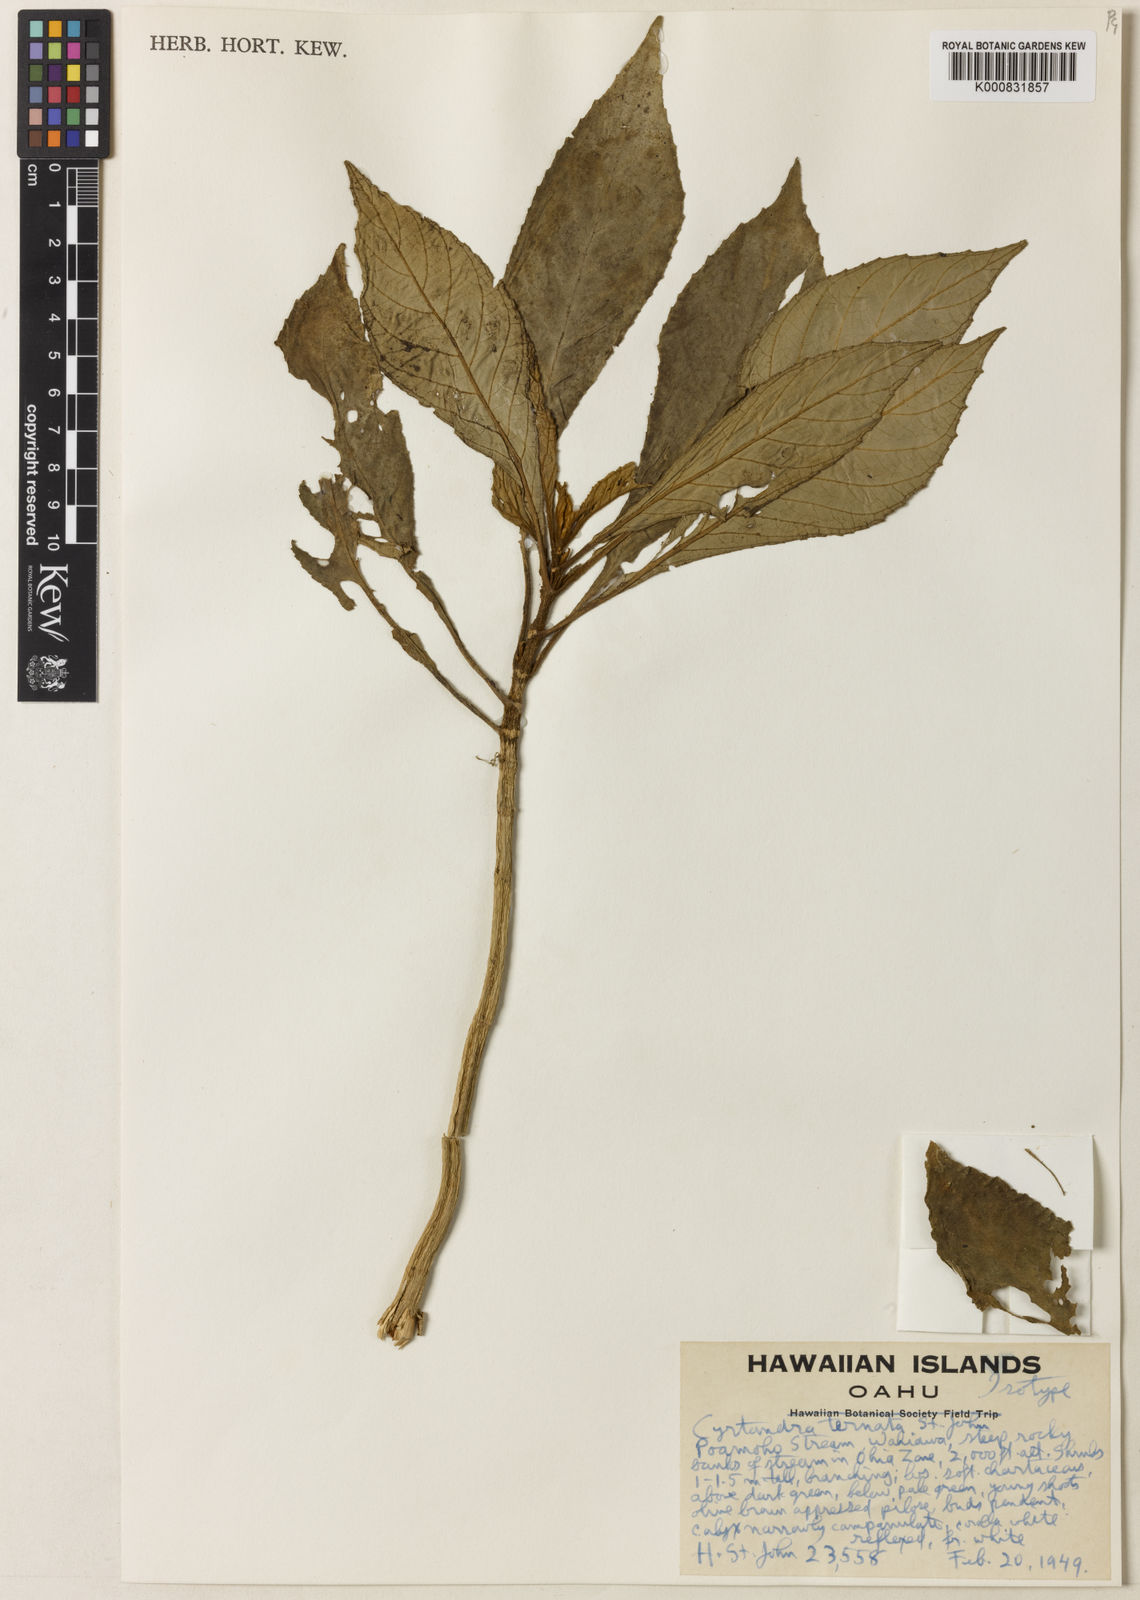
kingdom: Plantae
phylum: Tracheophyta
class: Magnoliopsida
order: Lamiales
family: Gesneriaceae
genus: Cyrtandra
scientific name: Cyrtandra atomigyna
